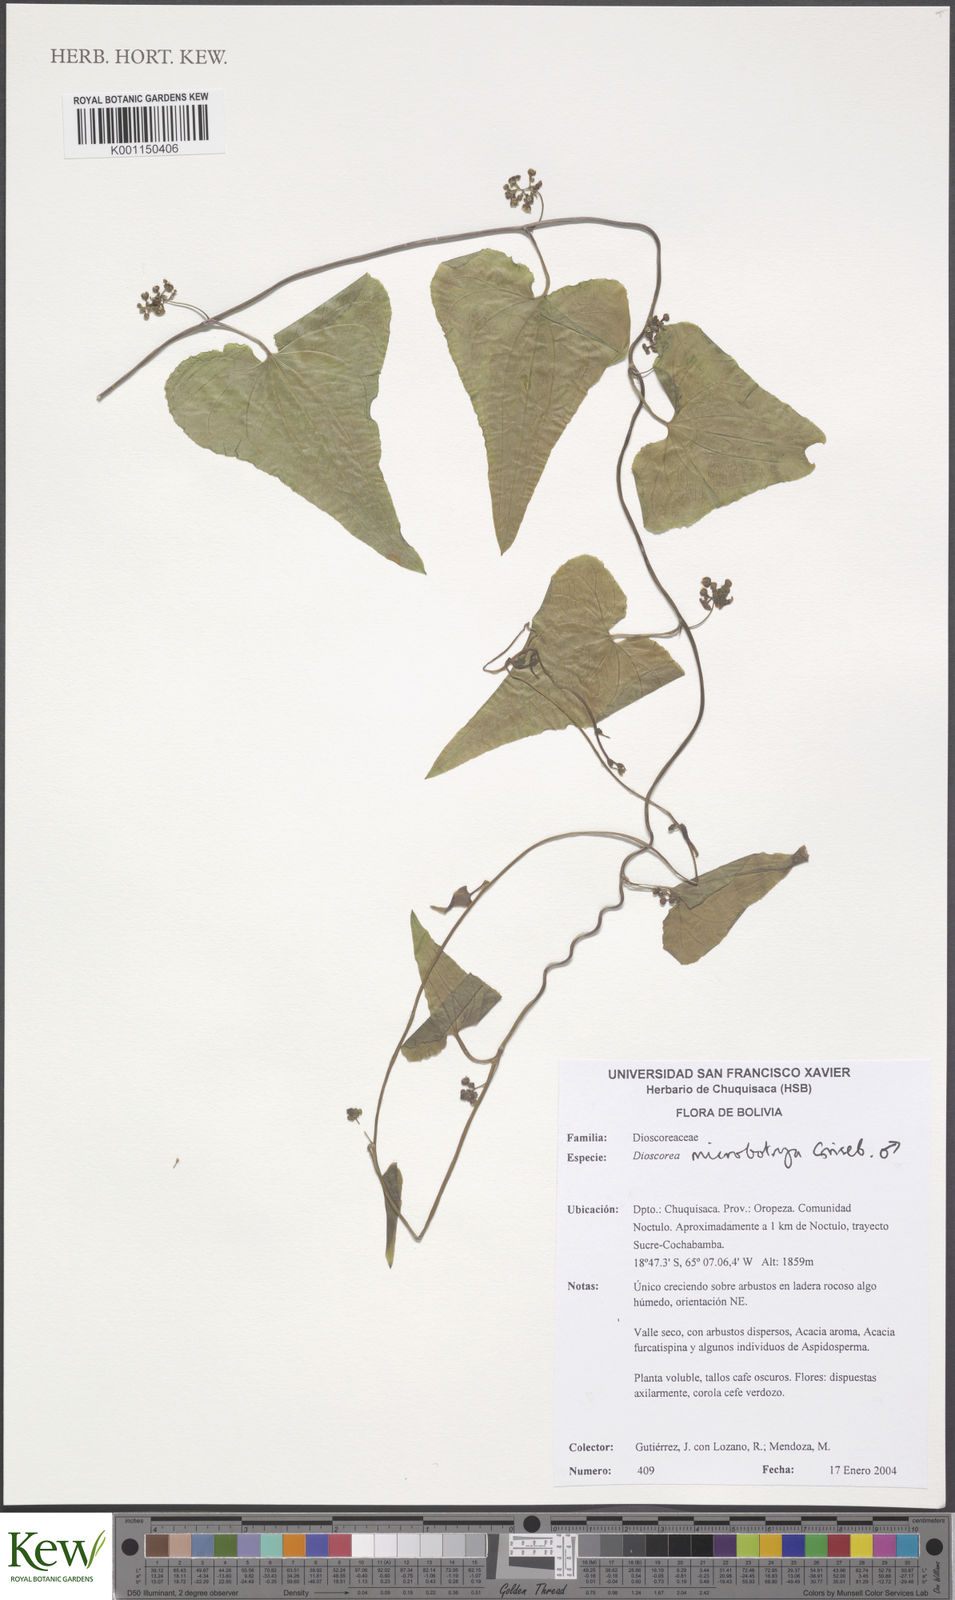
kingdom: Plantae
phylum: Tracheophyta
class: Liliopsida
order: Dioscoreales
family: Dioscoreaceae
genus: Dioscorea
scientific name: Dioscorea microbotrya
